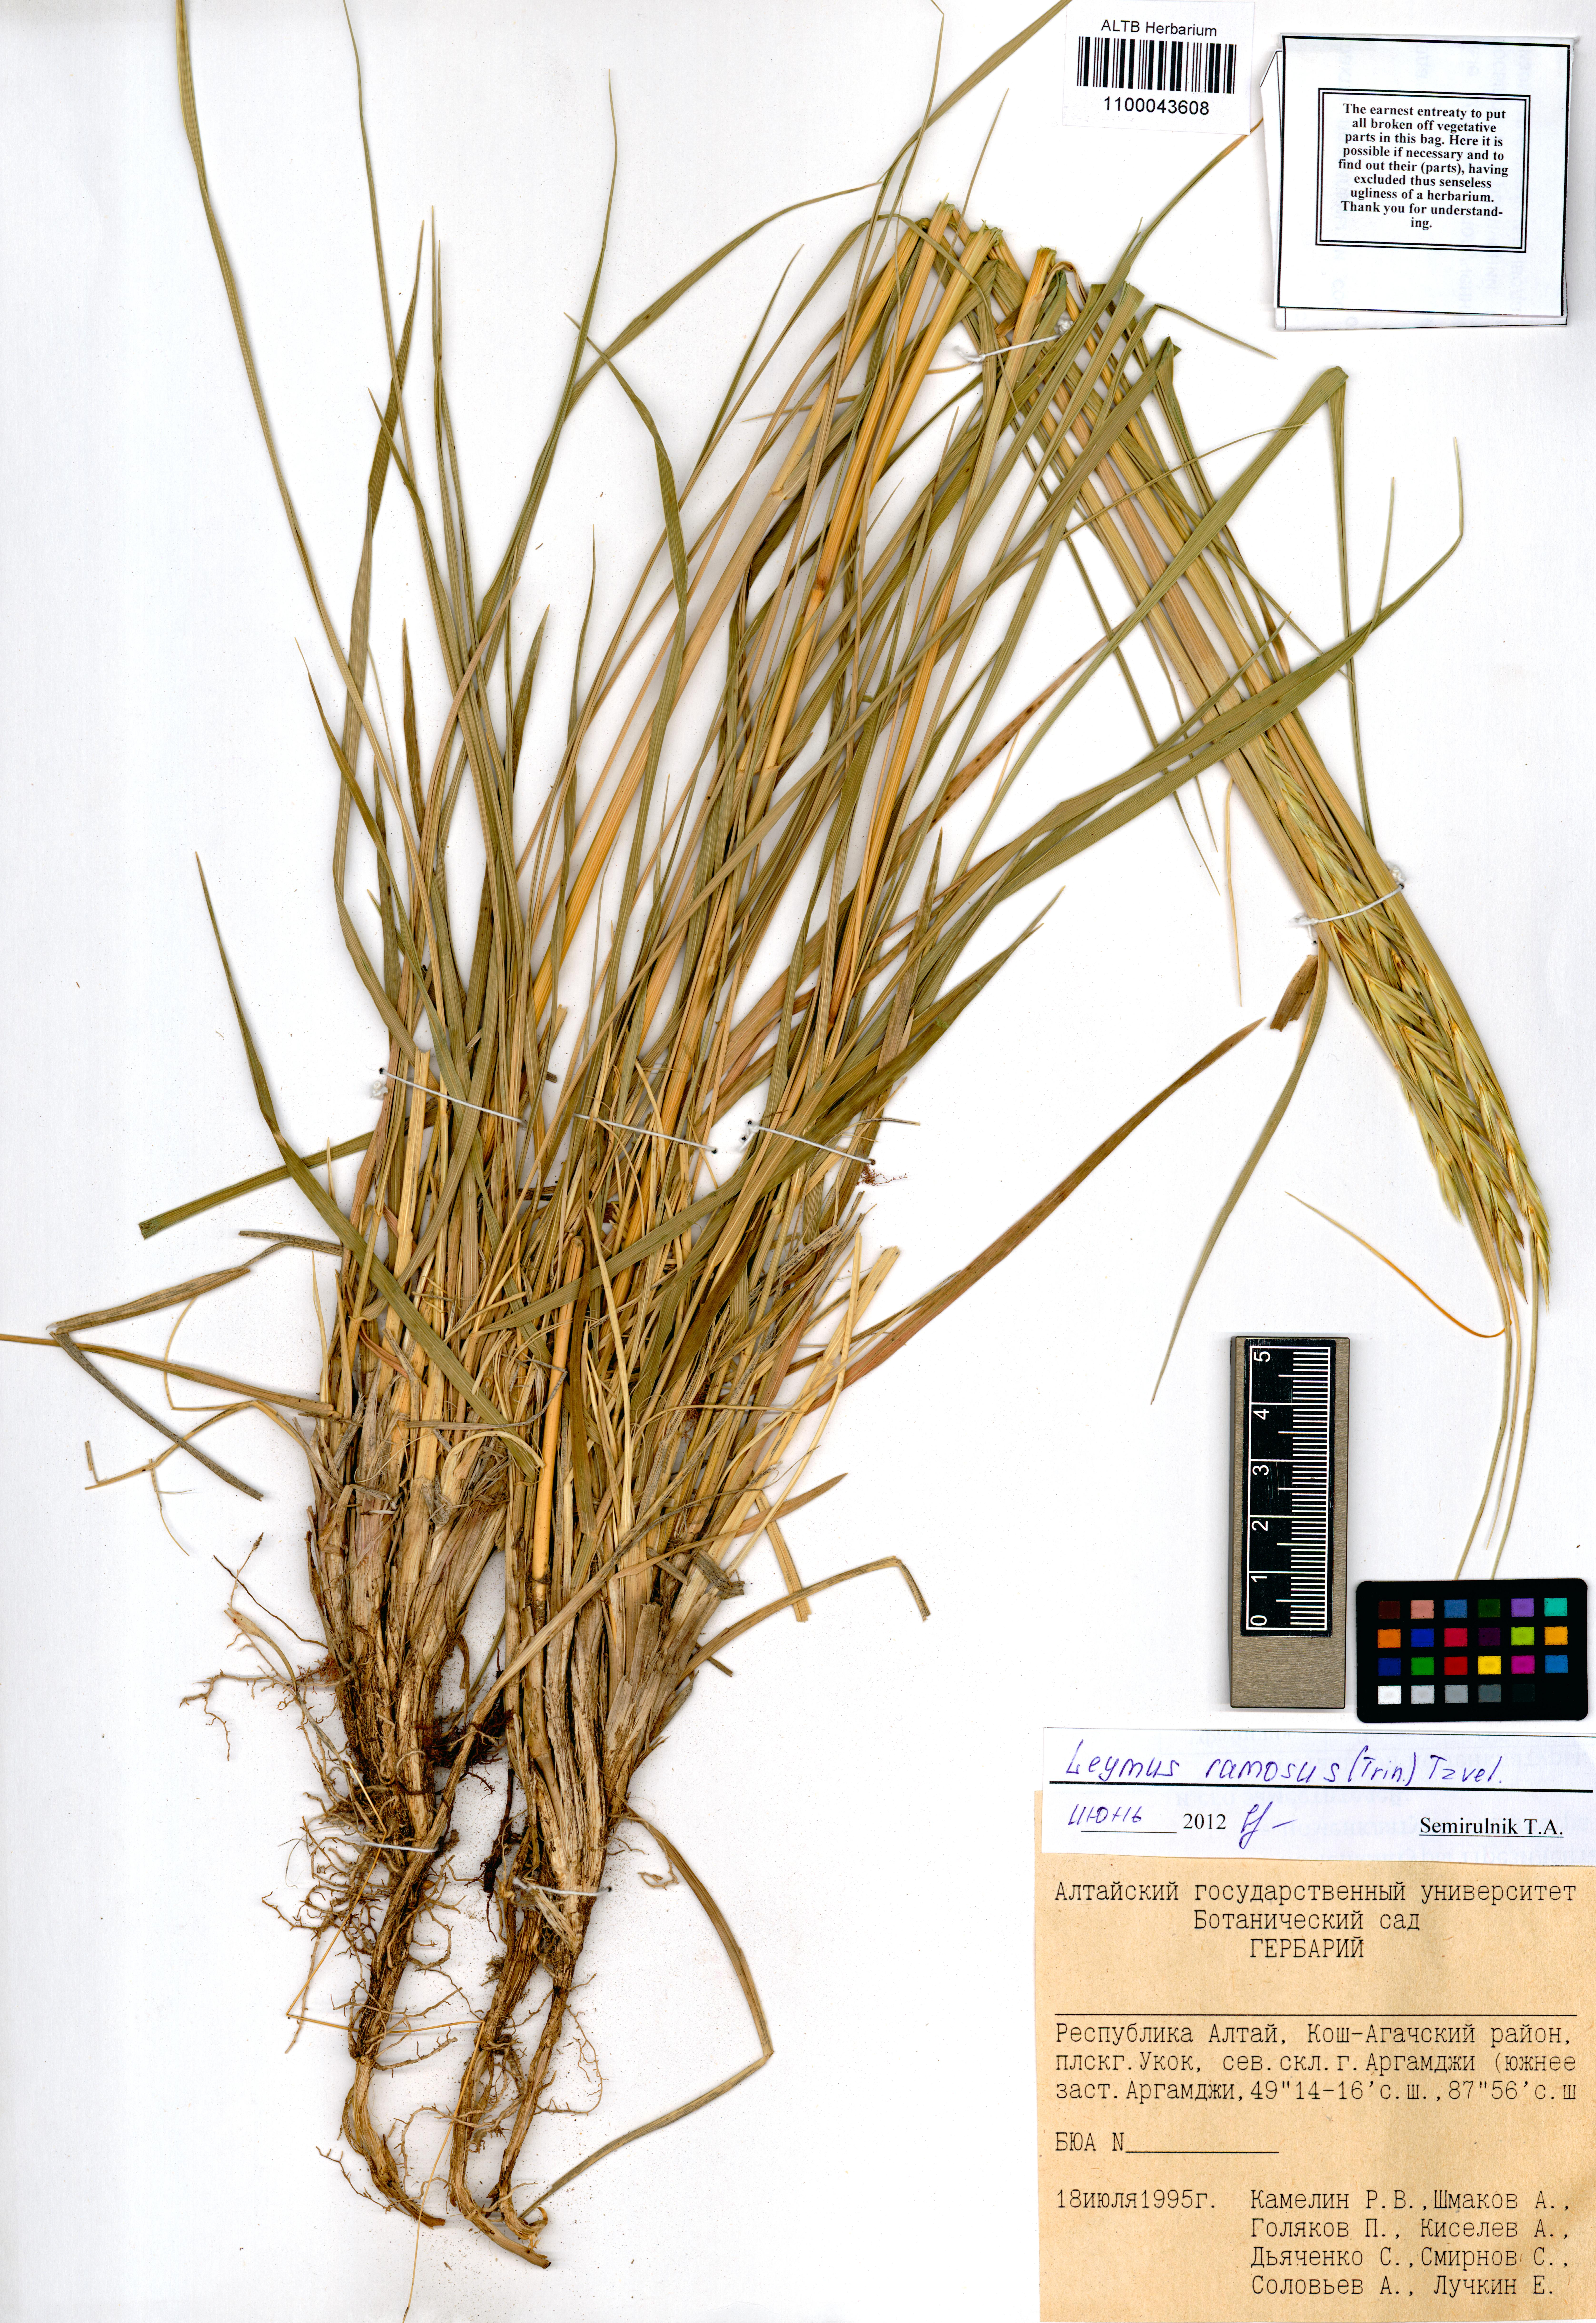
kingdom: Plantae
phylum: Tracheophyta
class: Liliopsida
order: Poales
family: Poaceae
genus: Leymus
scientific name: Leymus ramosus
